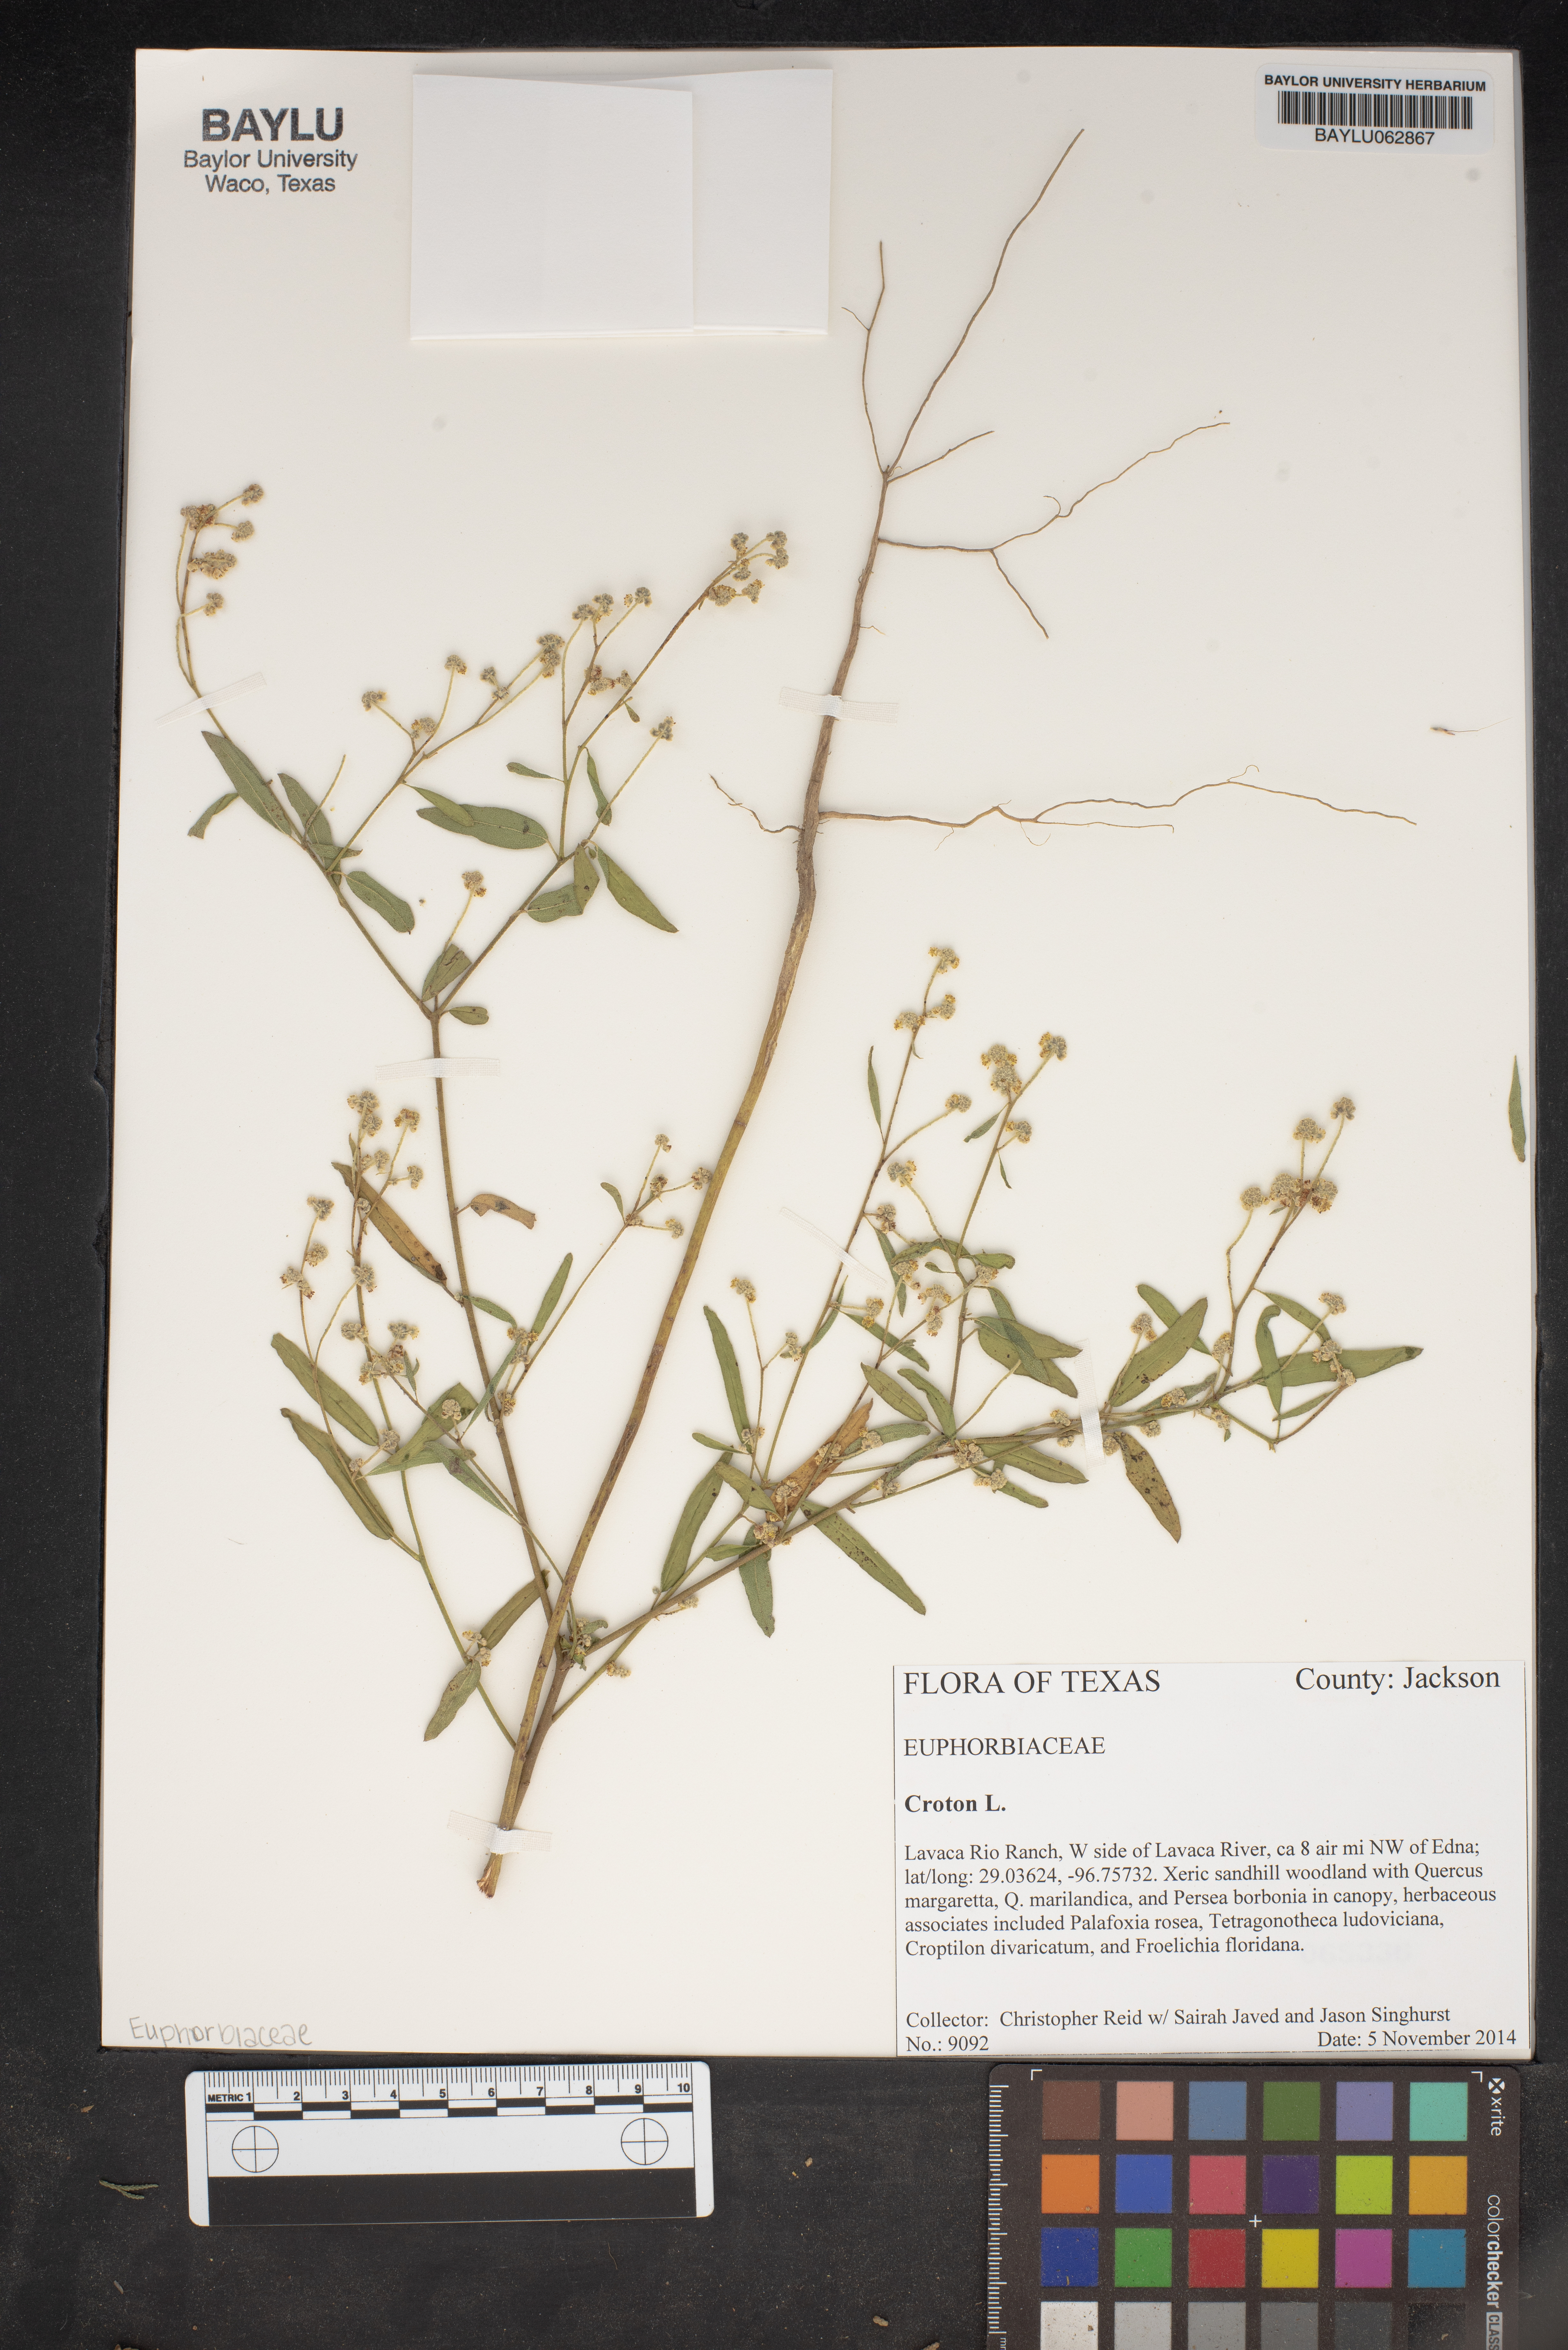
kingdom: Plantae
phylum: Tracheophyta
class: Magnoliopsida
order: Malpighiales
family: Euphorbiaceae
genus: Croton
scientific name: Croton
